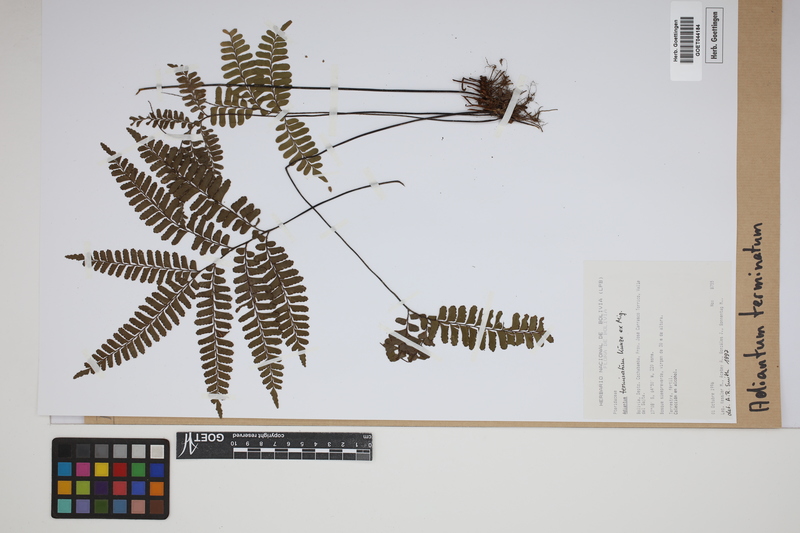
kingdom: Plantae
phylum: Tracheophyta
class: Polypodiopsida
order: Polypodiales
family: Pteridaceae
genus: Adiantum
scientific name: Adiantum terminatum
